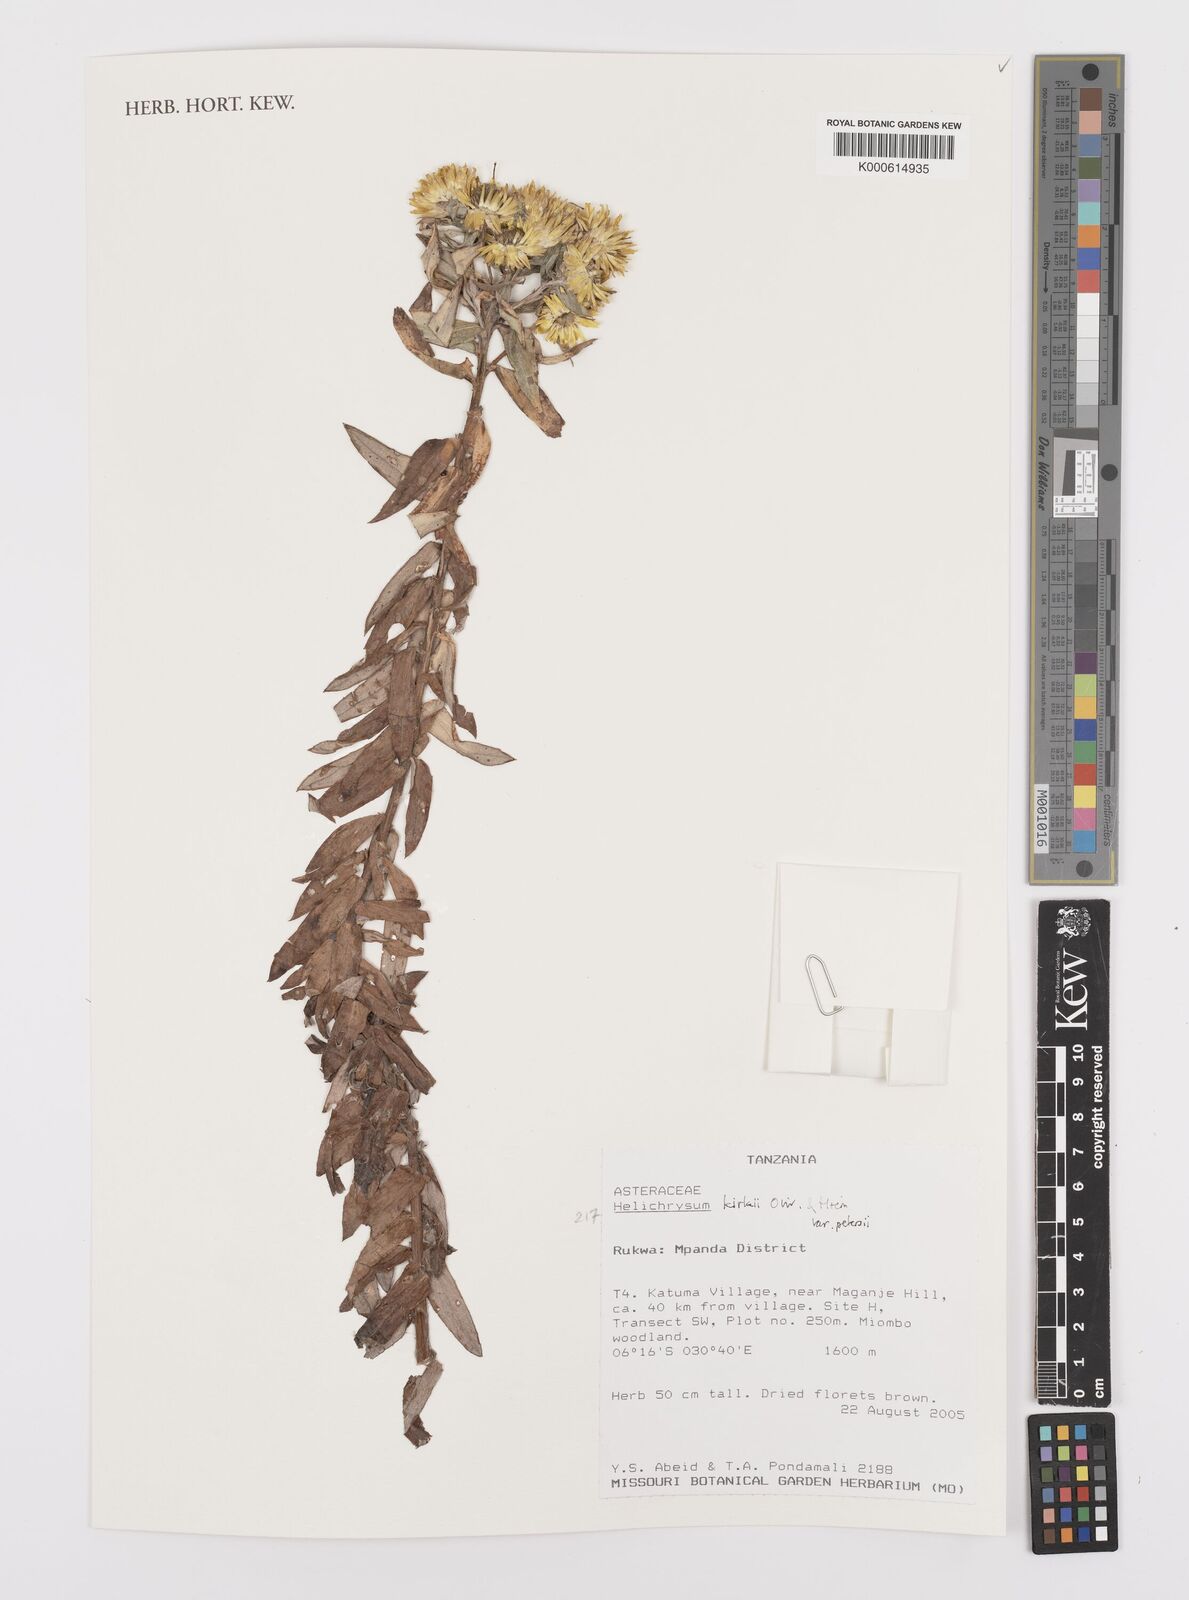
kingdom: Plantae
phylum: Tracheophyta
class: Magnoliopsida
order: Asterales
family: Asteraceae
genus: Helichrysum
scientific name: Helichrysum kirkii
